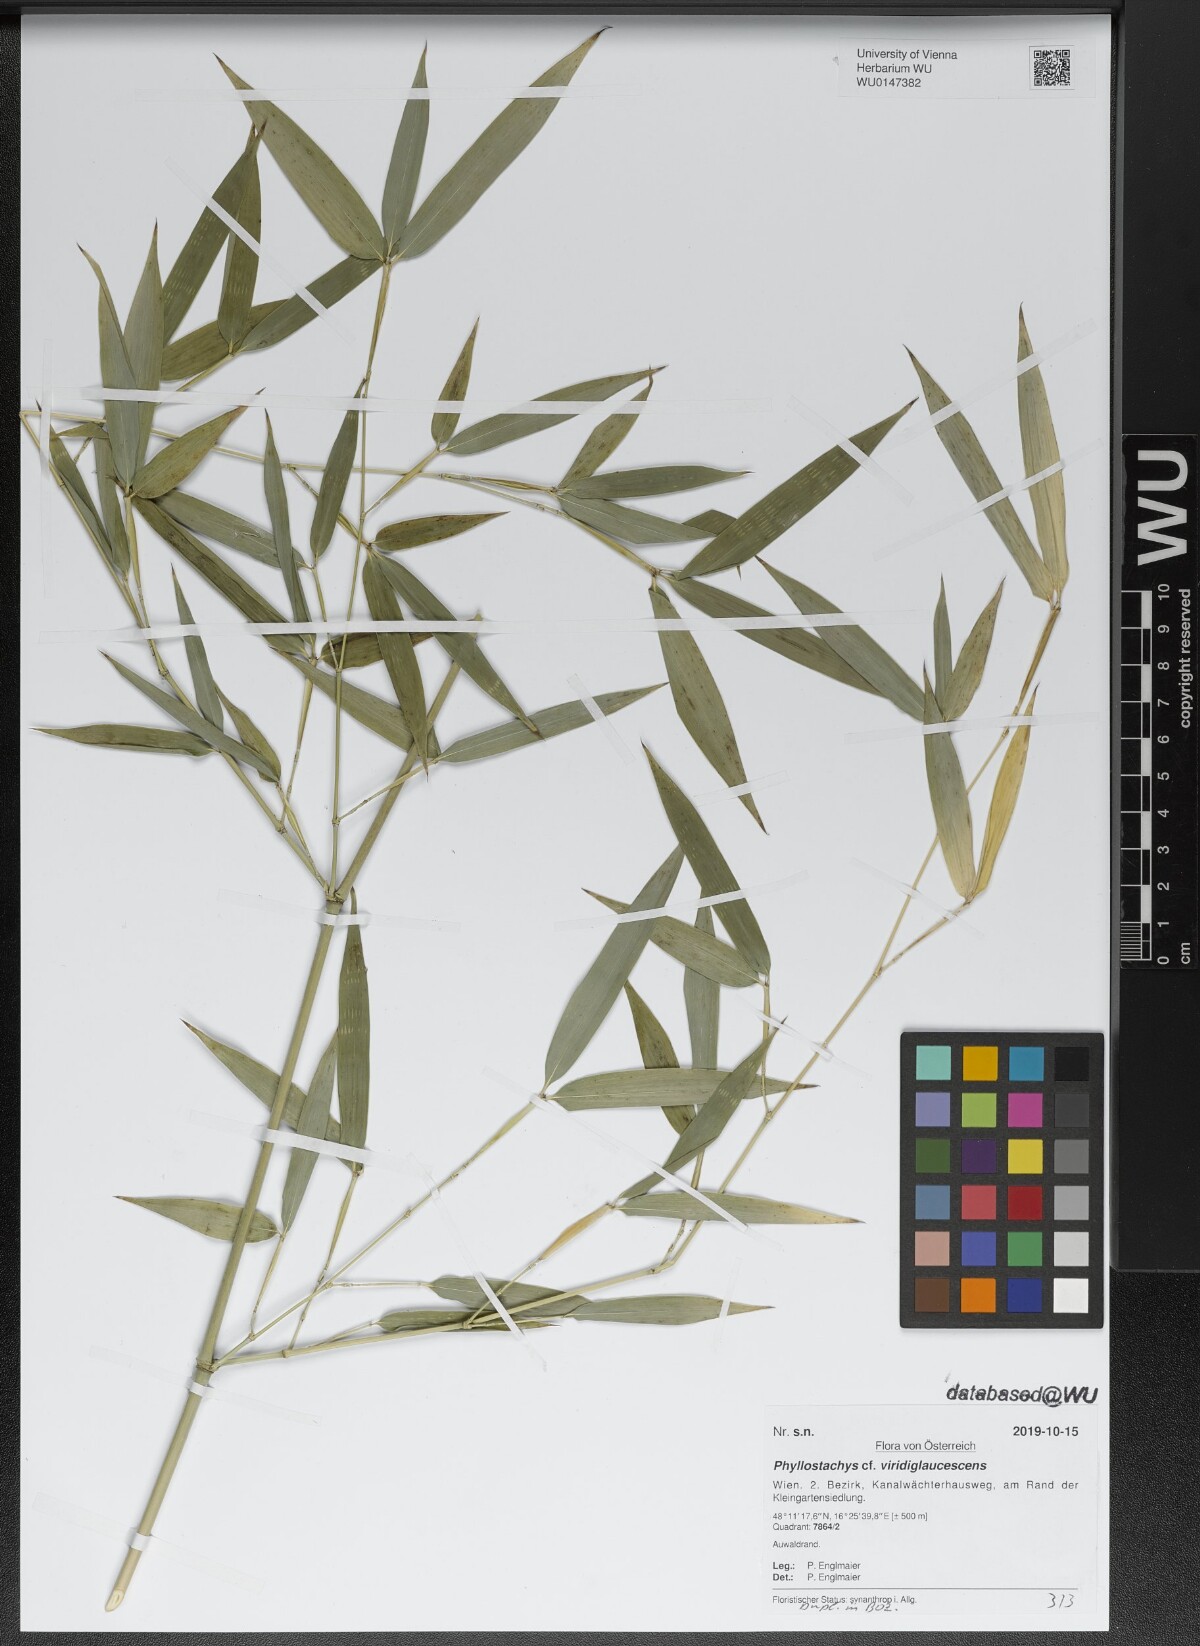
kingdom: Plantae
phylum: Tracheophyta
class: Liliopsida
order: Poales
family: Poaceae
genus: Phyllostachys
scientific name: Phyllostachys viridiglaucescens
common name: Greenwax golden bamboo
